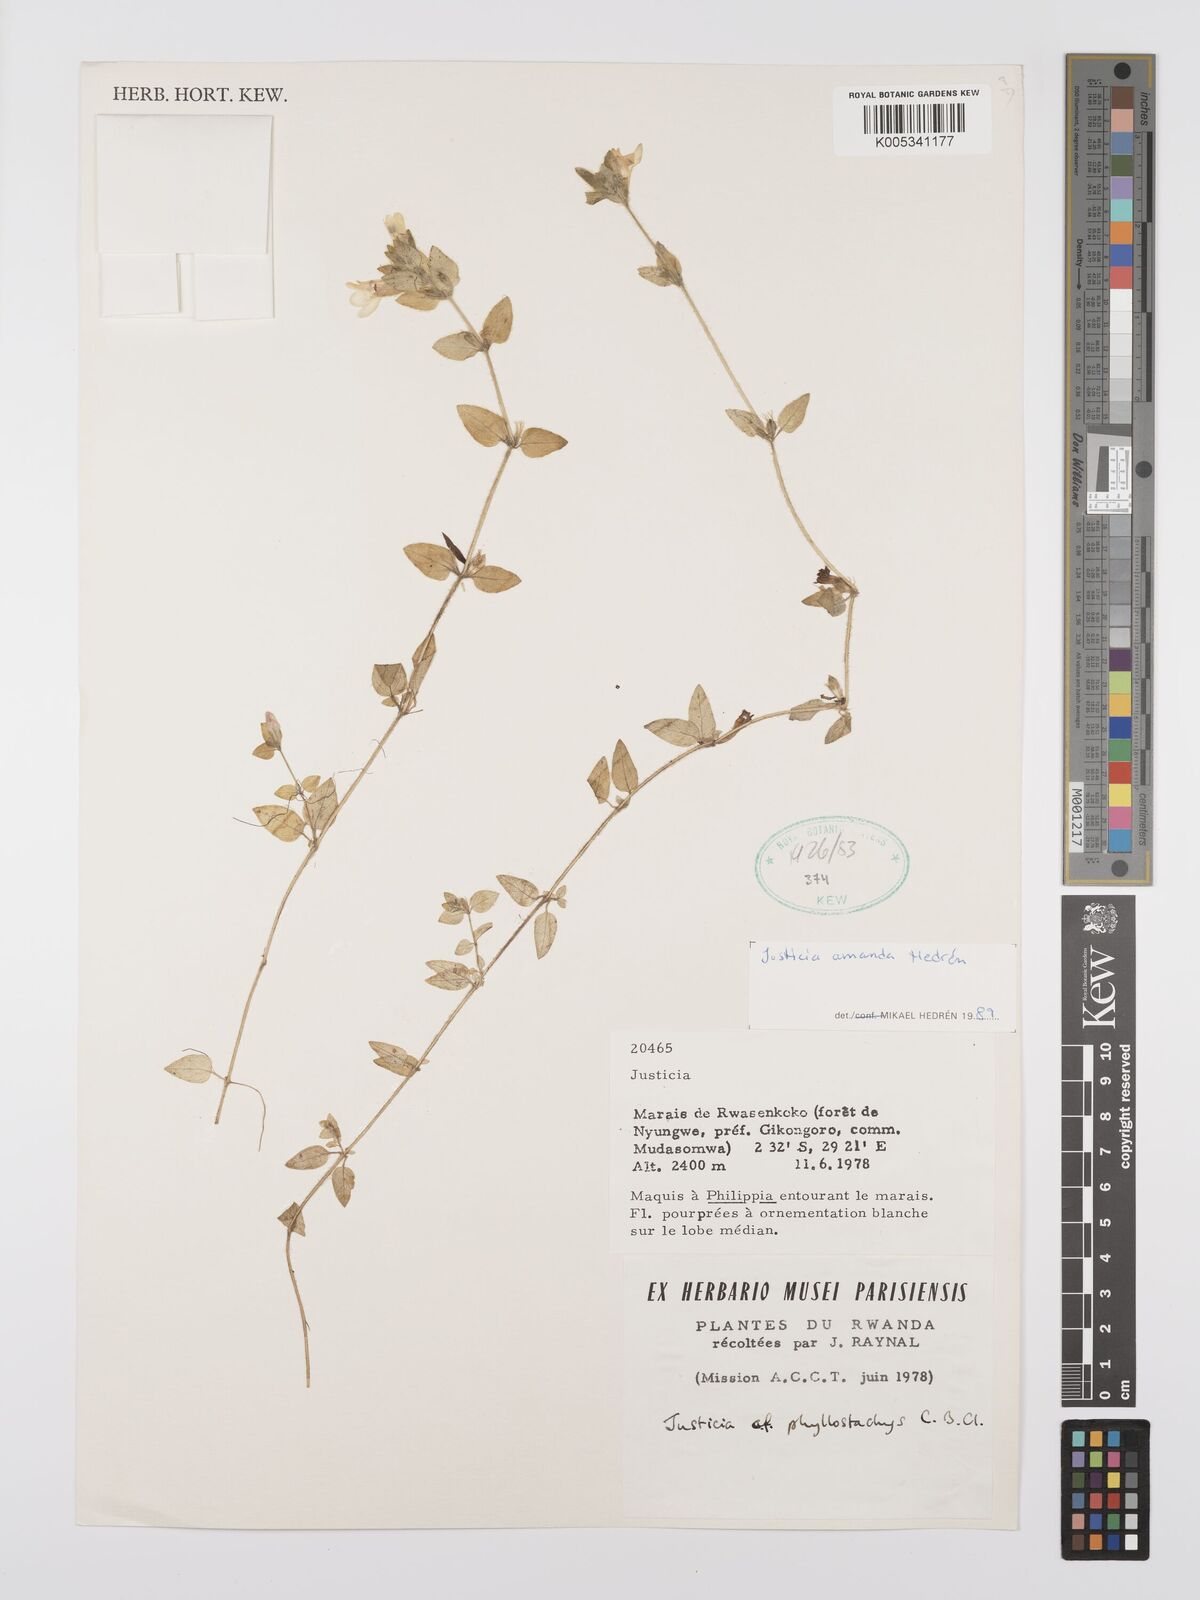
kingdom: Plantae
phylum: Tracheophyta
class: Magnoliopsida
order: Lamiales
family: Acanthaceae
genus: Justicia
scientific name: Justicia amanda
